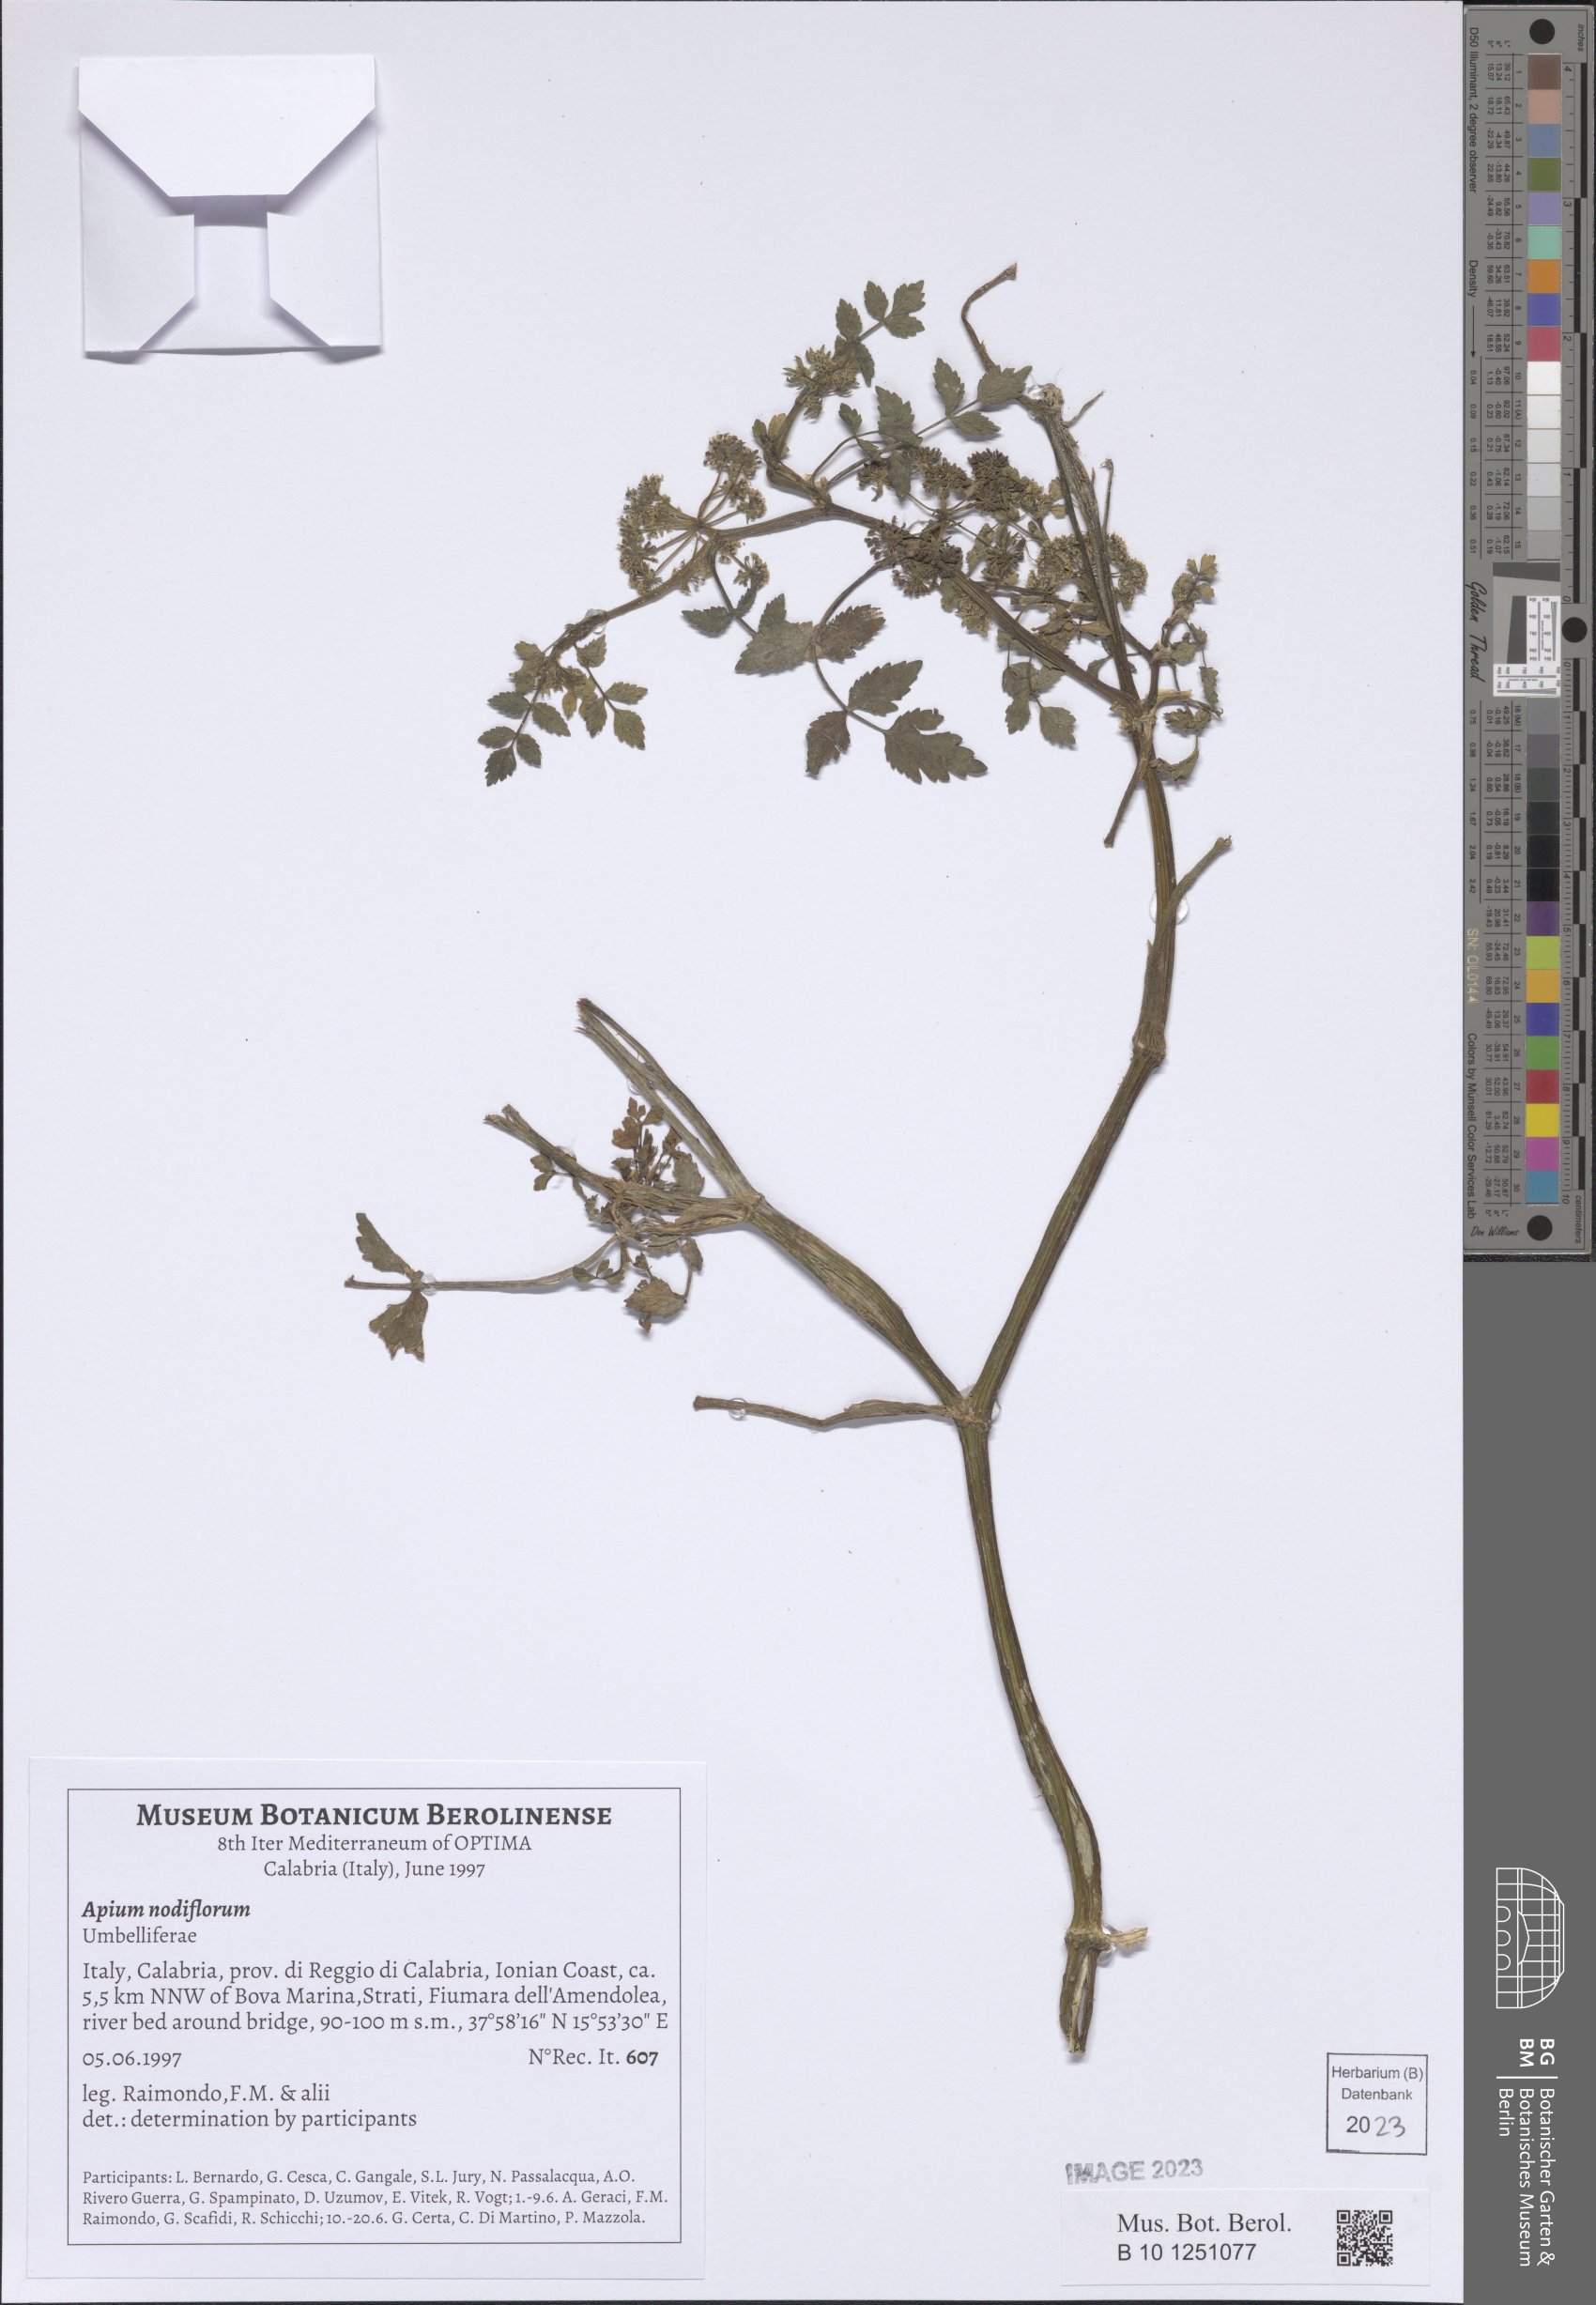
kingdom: Plantae
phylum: Tracheophyta
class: Magnoliopsida
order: Apiales
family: Apiaceae
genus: Helosciadium
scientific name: Helosciadium nodiflorum
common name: Fool's-watercress
